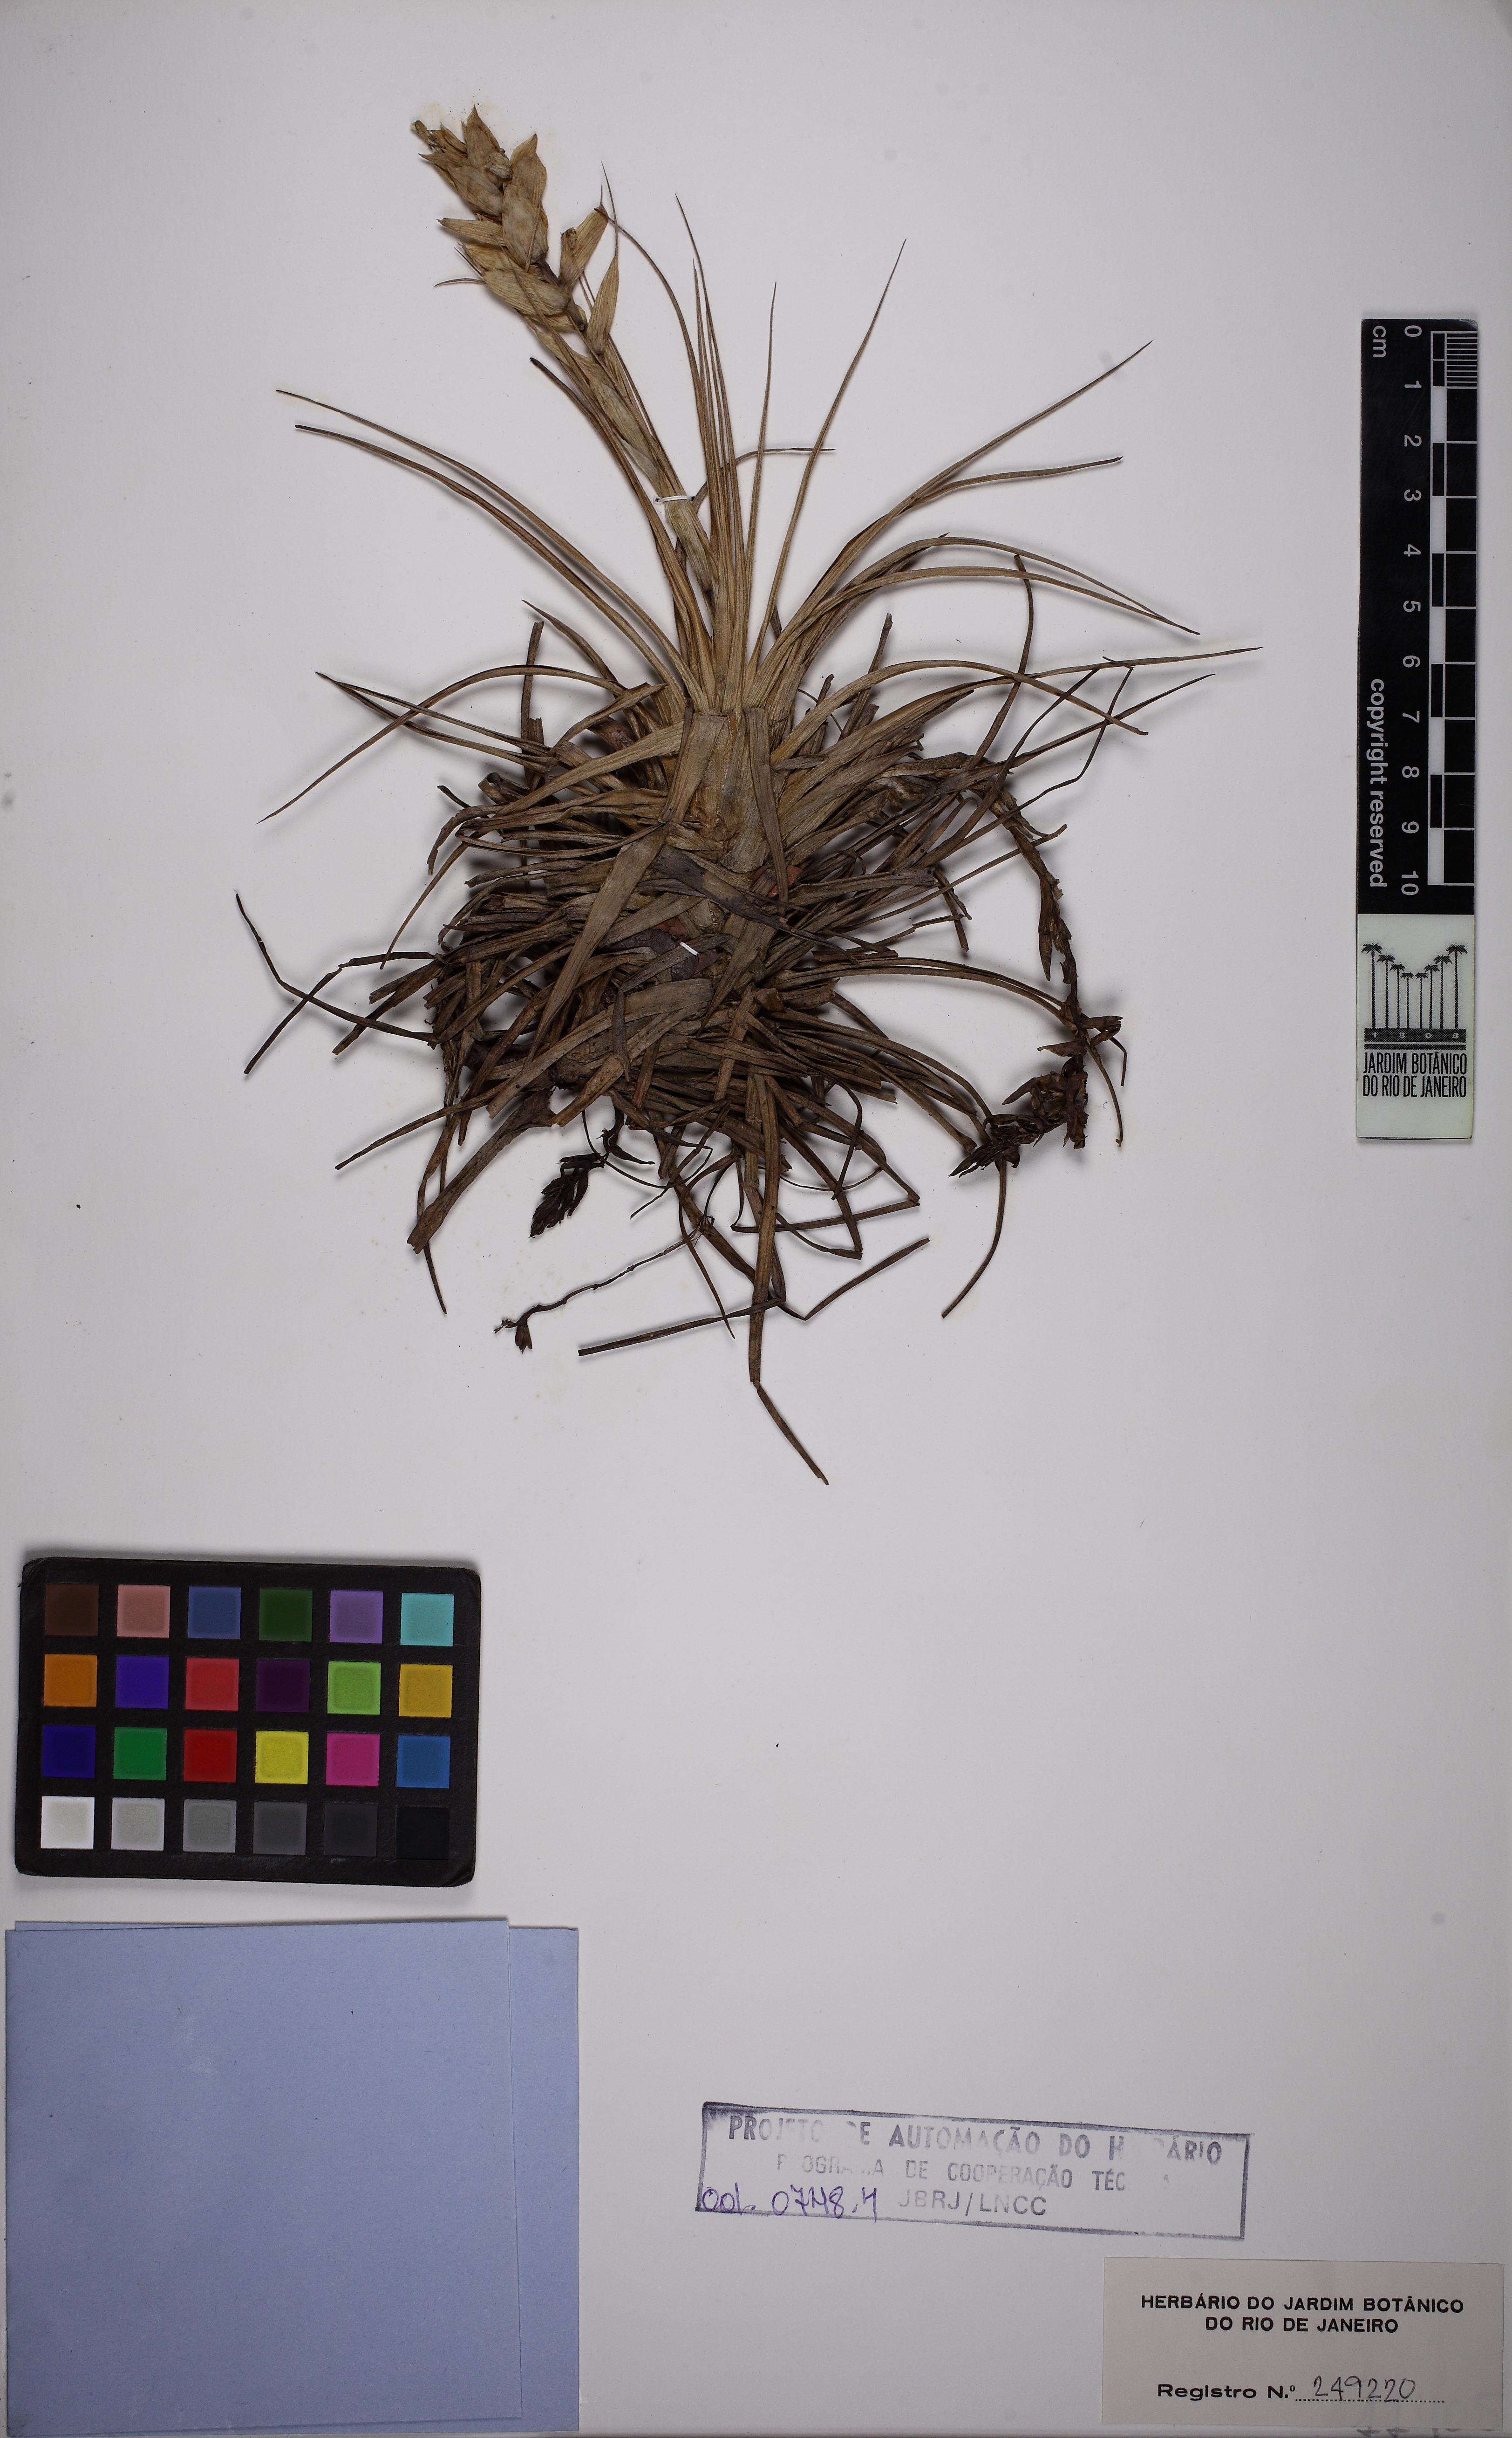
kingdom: Plantae
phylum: Tracheophyta
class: Liliopsida
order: Poales
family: Bromeliaceae
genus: Tillandsia
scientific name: Tillandsia stricta
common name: Airplant
